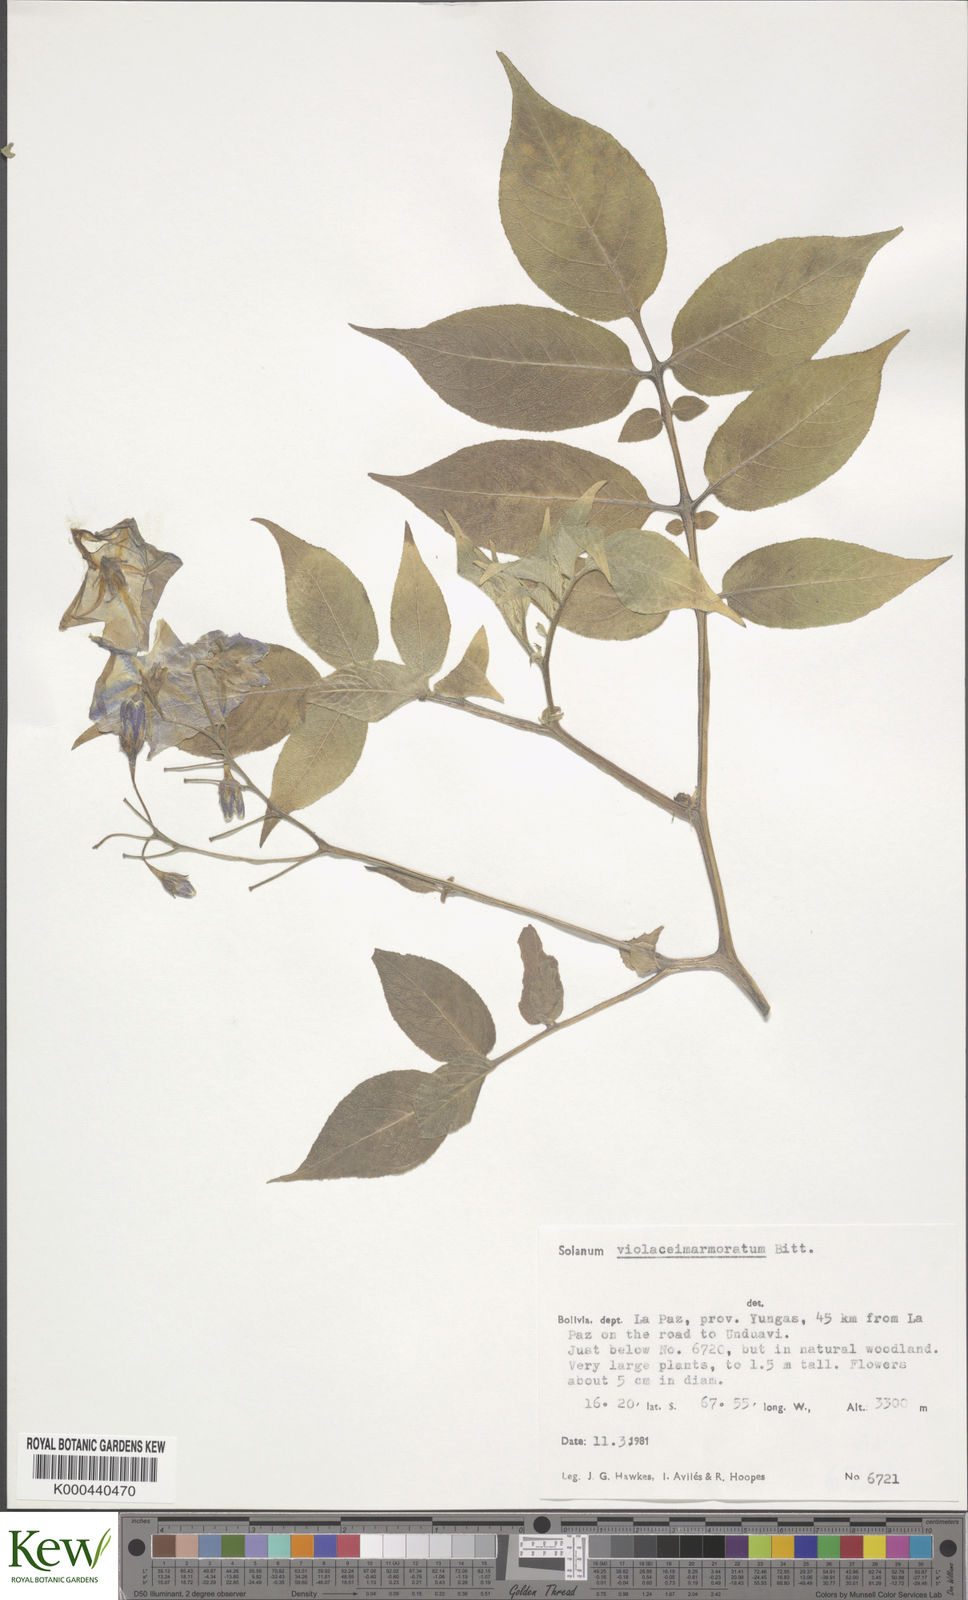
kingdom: Plantae
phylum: Tracheophyta
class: Magnoliopsida
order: Solanales
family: Solanaceae
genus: Solanum
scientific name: Solanum violaceimarmoratum
